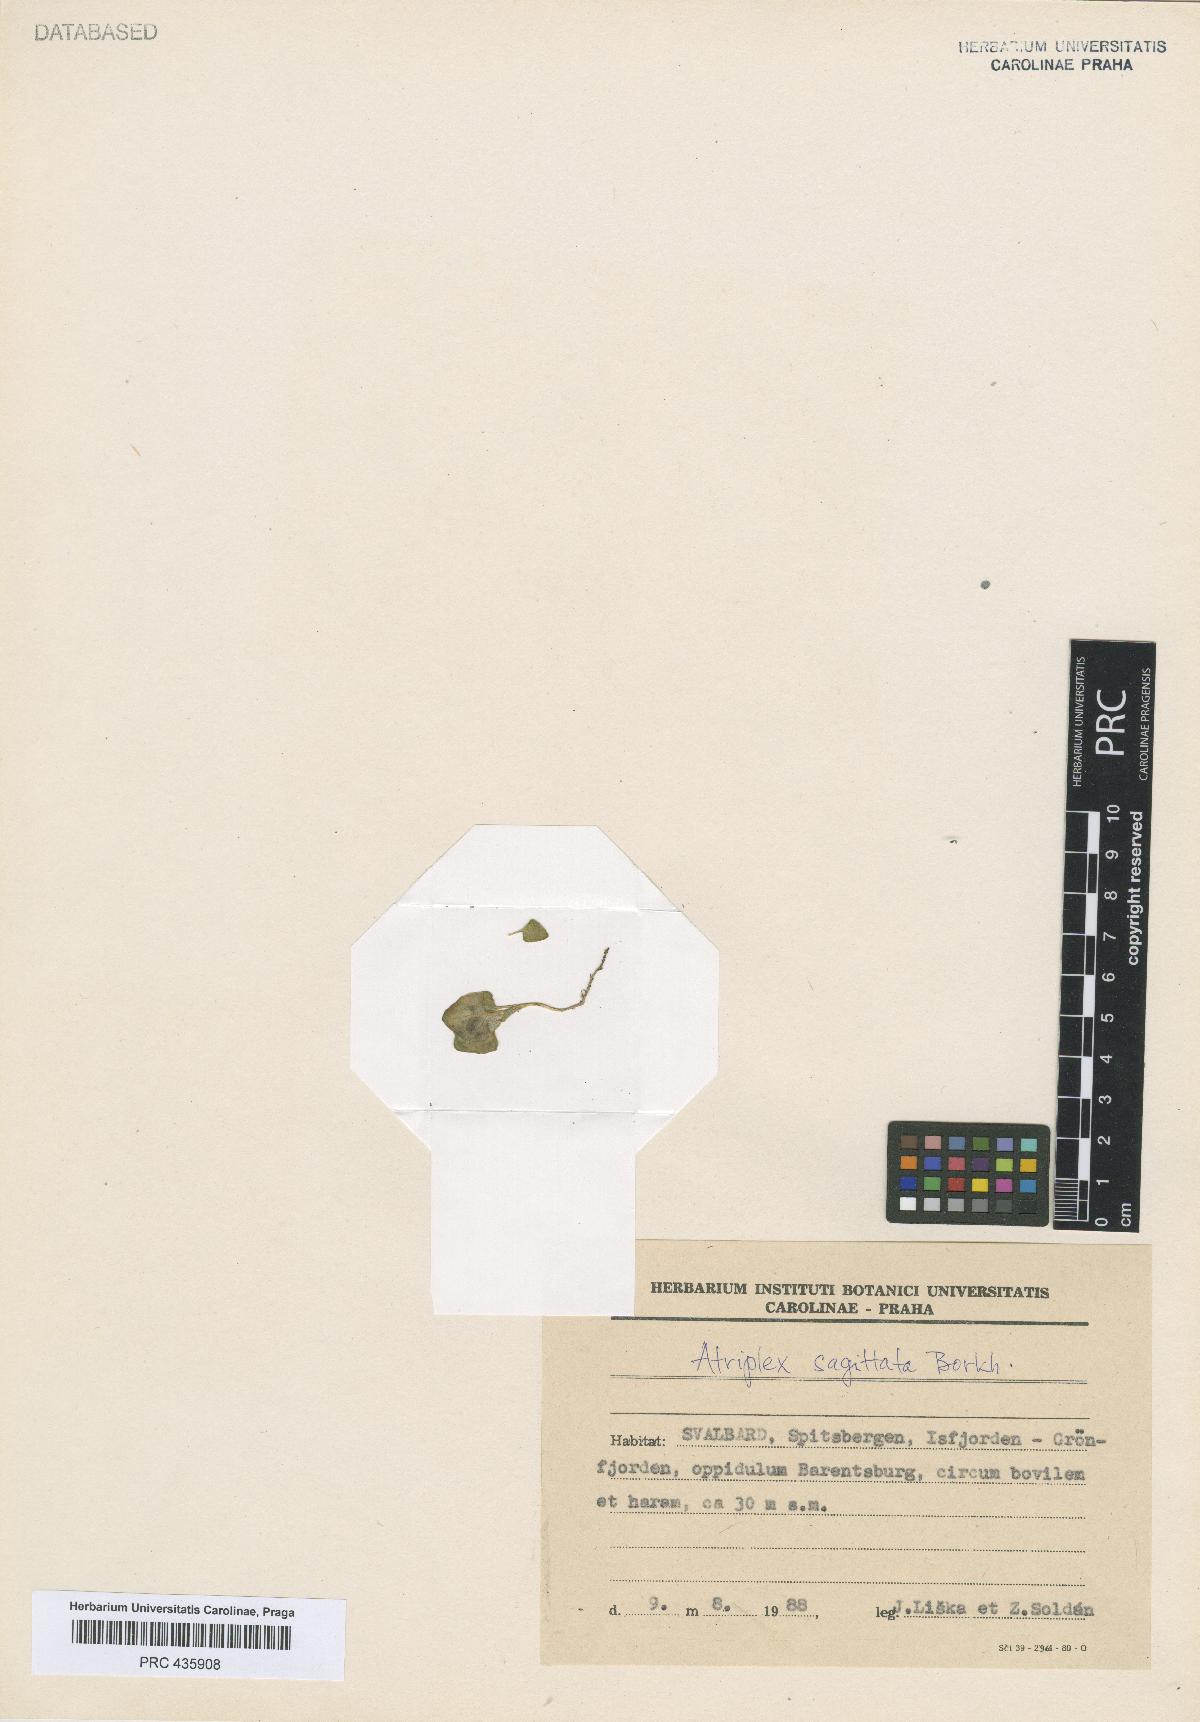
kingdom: Plantae
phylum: Tracheophyta
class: Magnoliopsida
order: Caryophyllales
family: Amaranthaceae
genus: Atriplex
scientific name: Atriplex sagittata
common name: Purple orache
